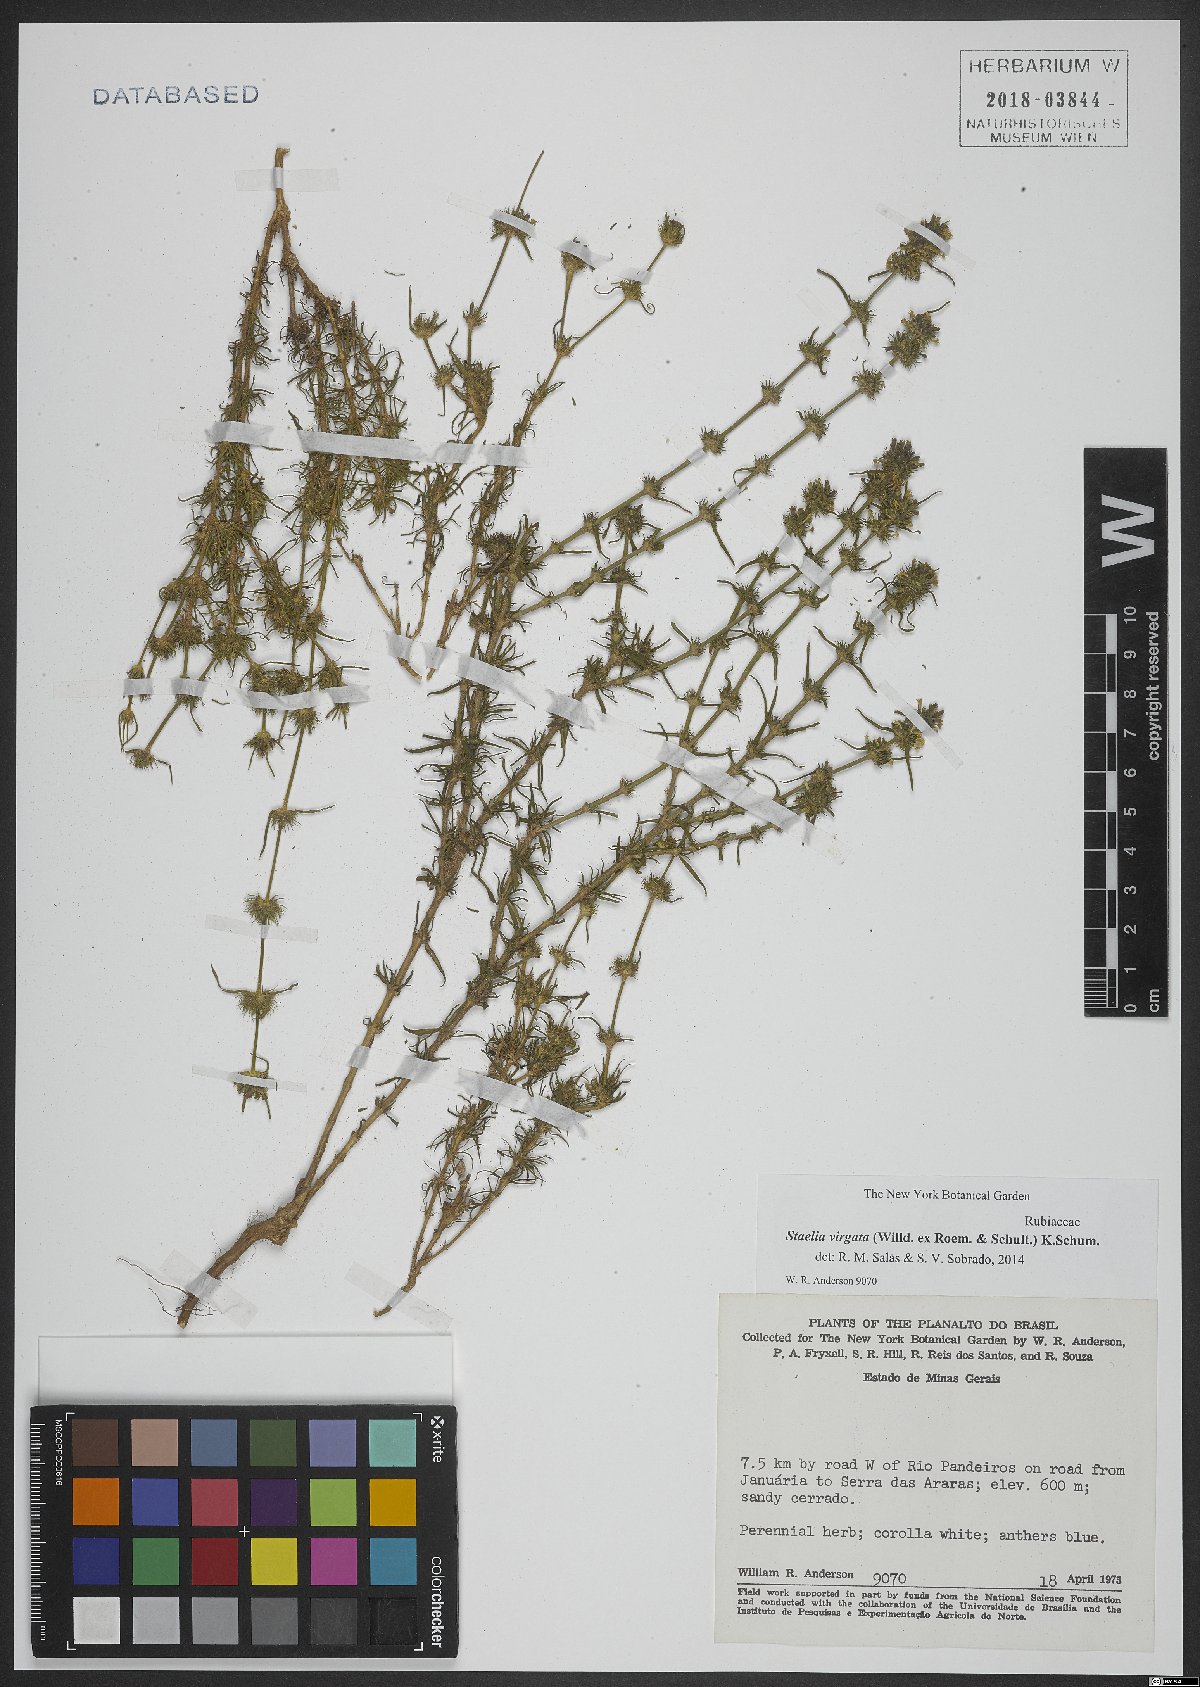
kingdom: Plantae
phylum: Tracheophyta
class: Magnoliopsida
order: Gentianales
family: Rubiaceae
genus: Staelia
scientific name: Staelia virgata
